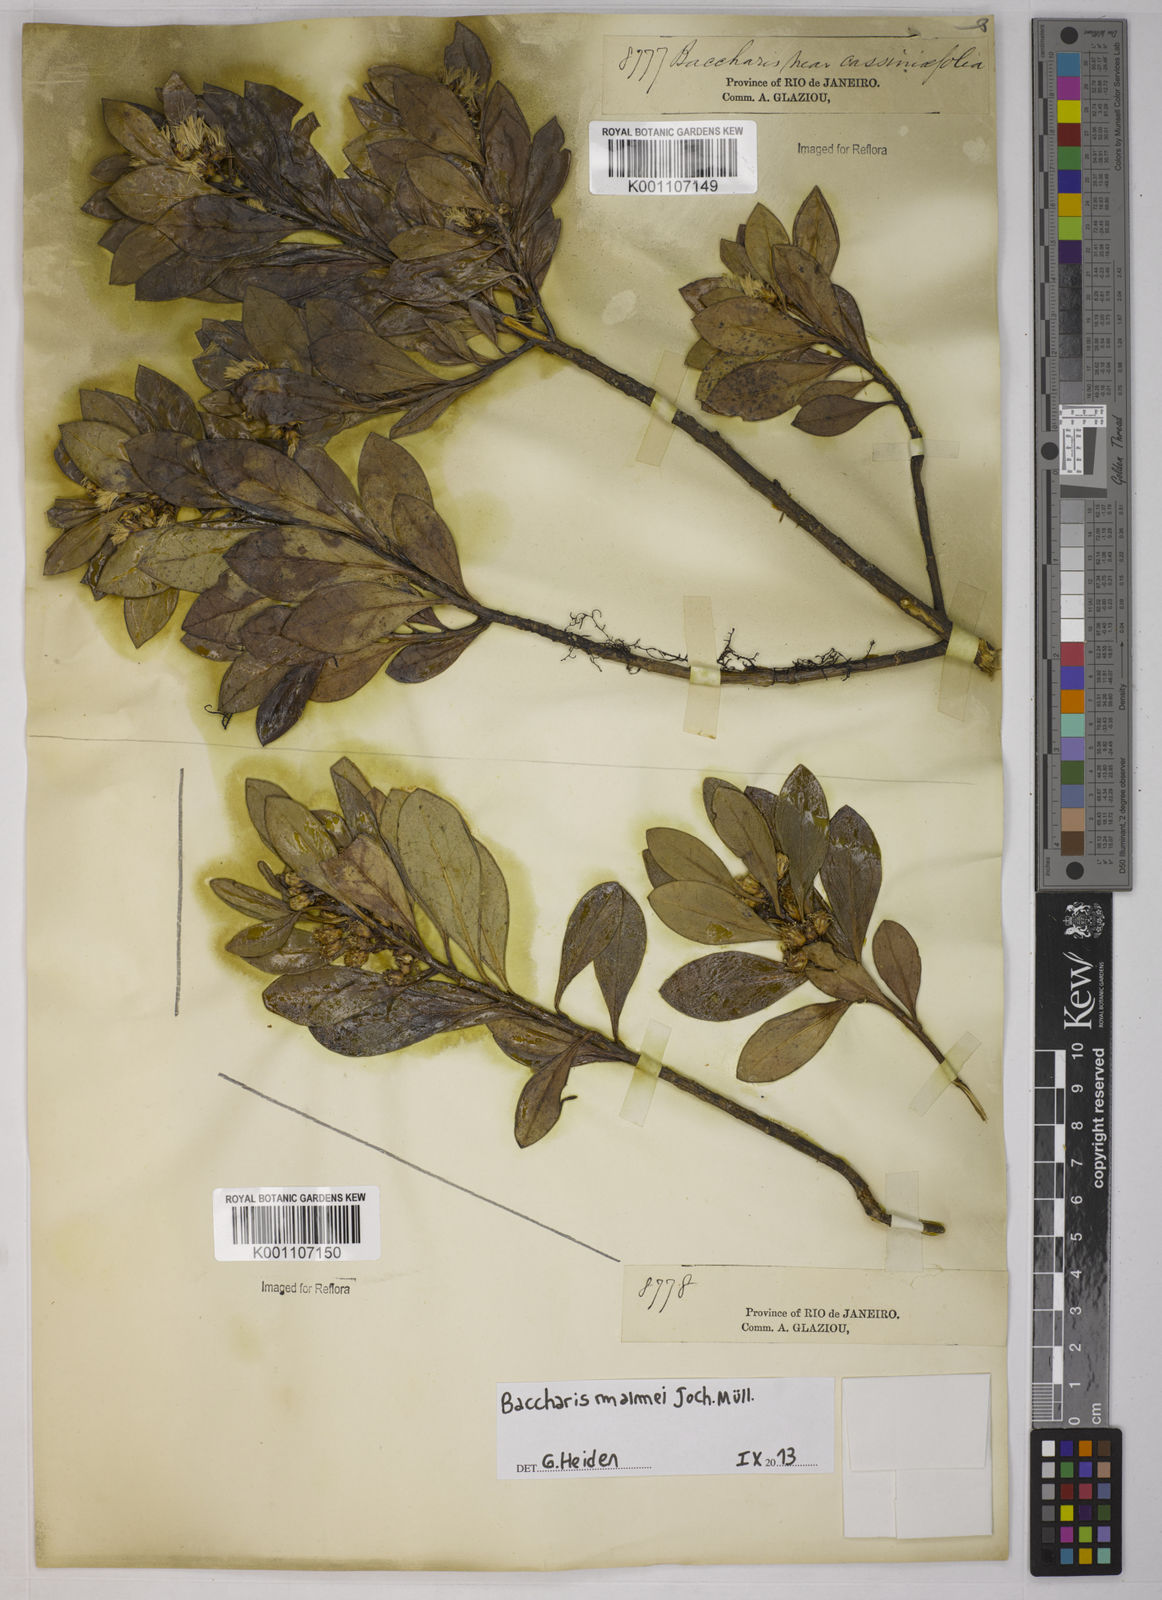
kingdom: Plantae
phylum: Tracheophyta
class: Magnoliopsida
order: Asterales
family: Asteraceae
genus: Baccharis
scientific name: Baccharis
